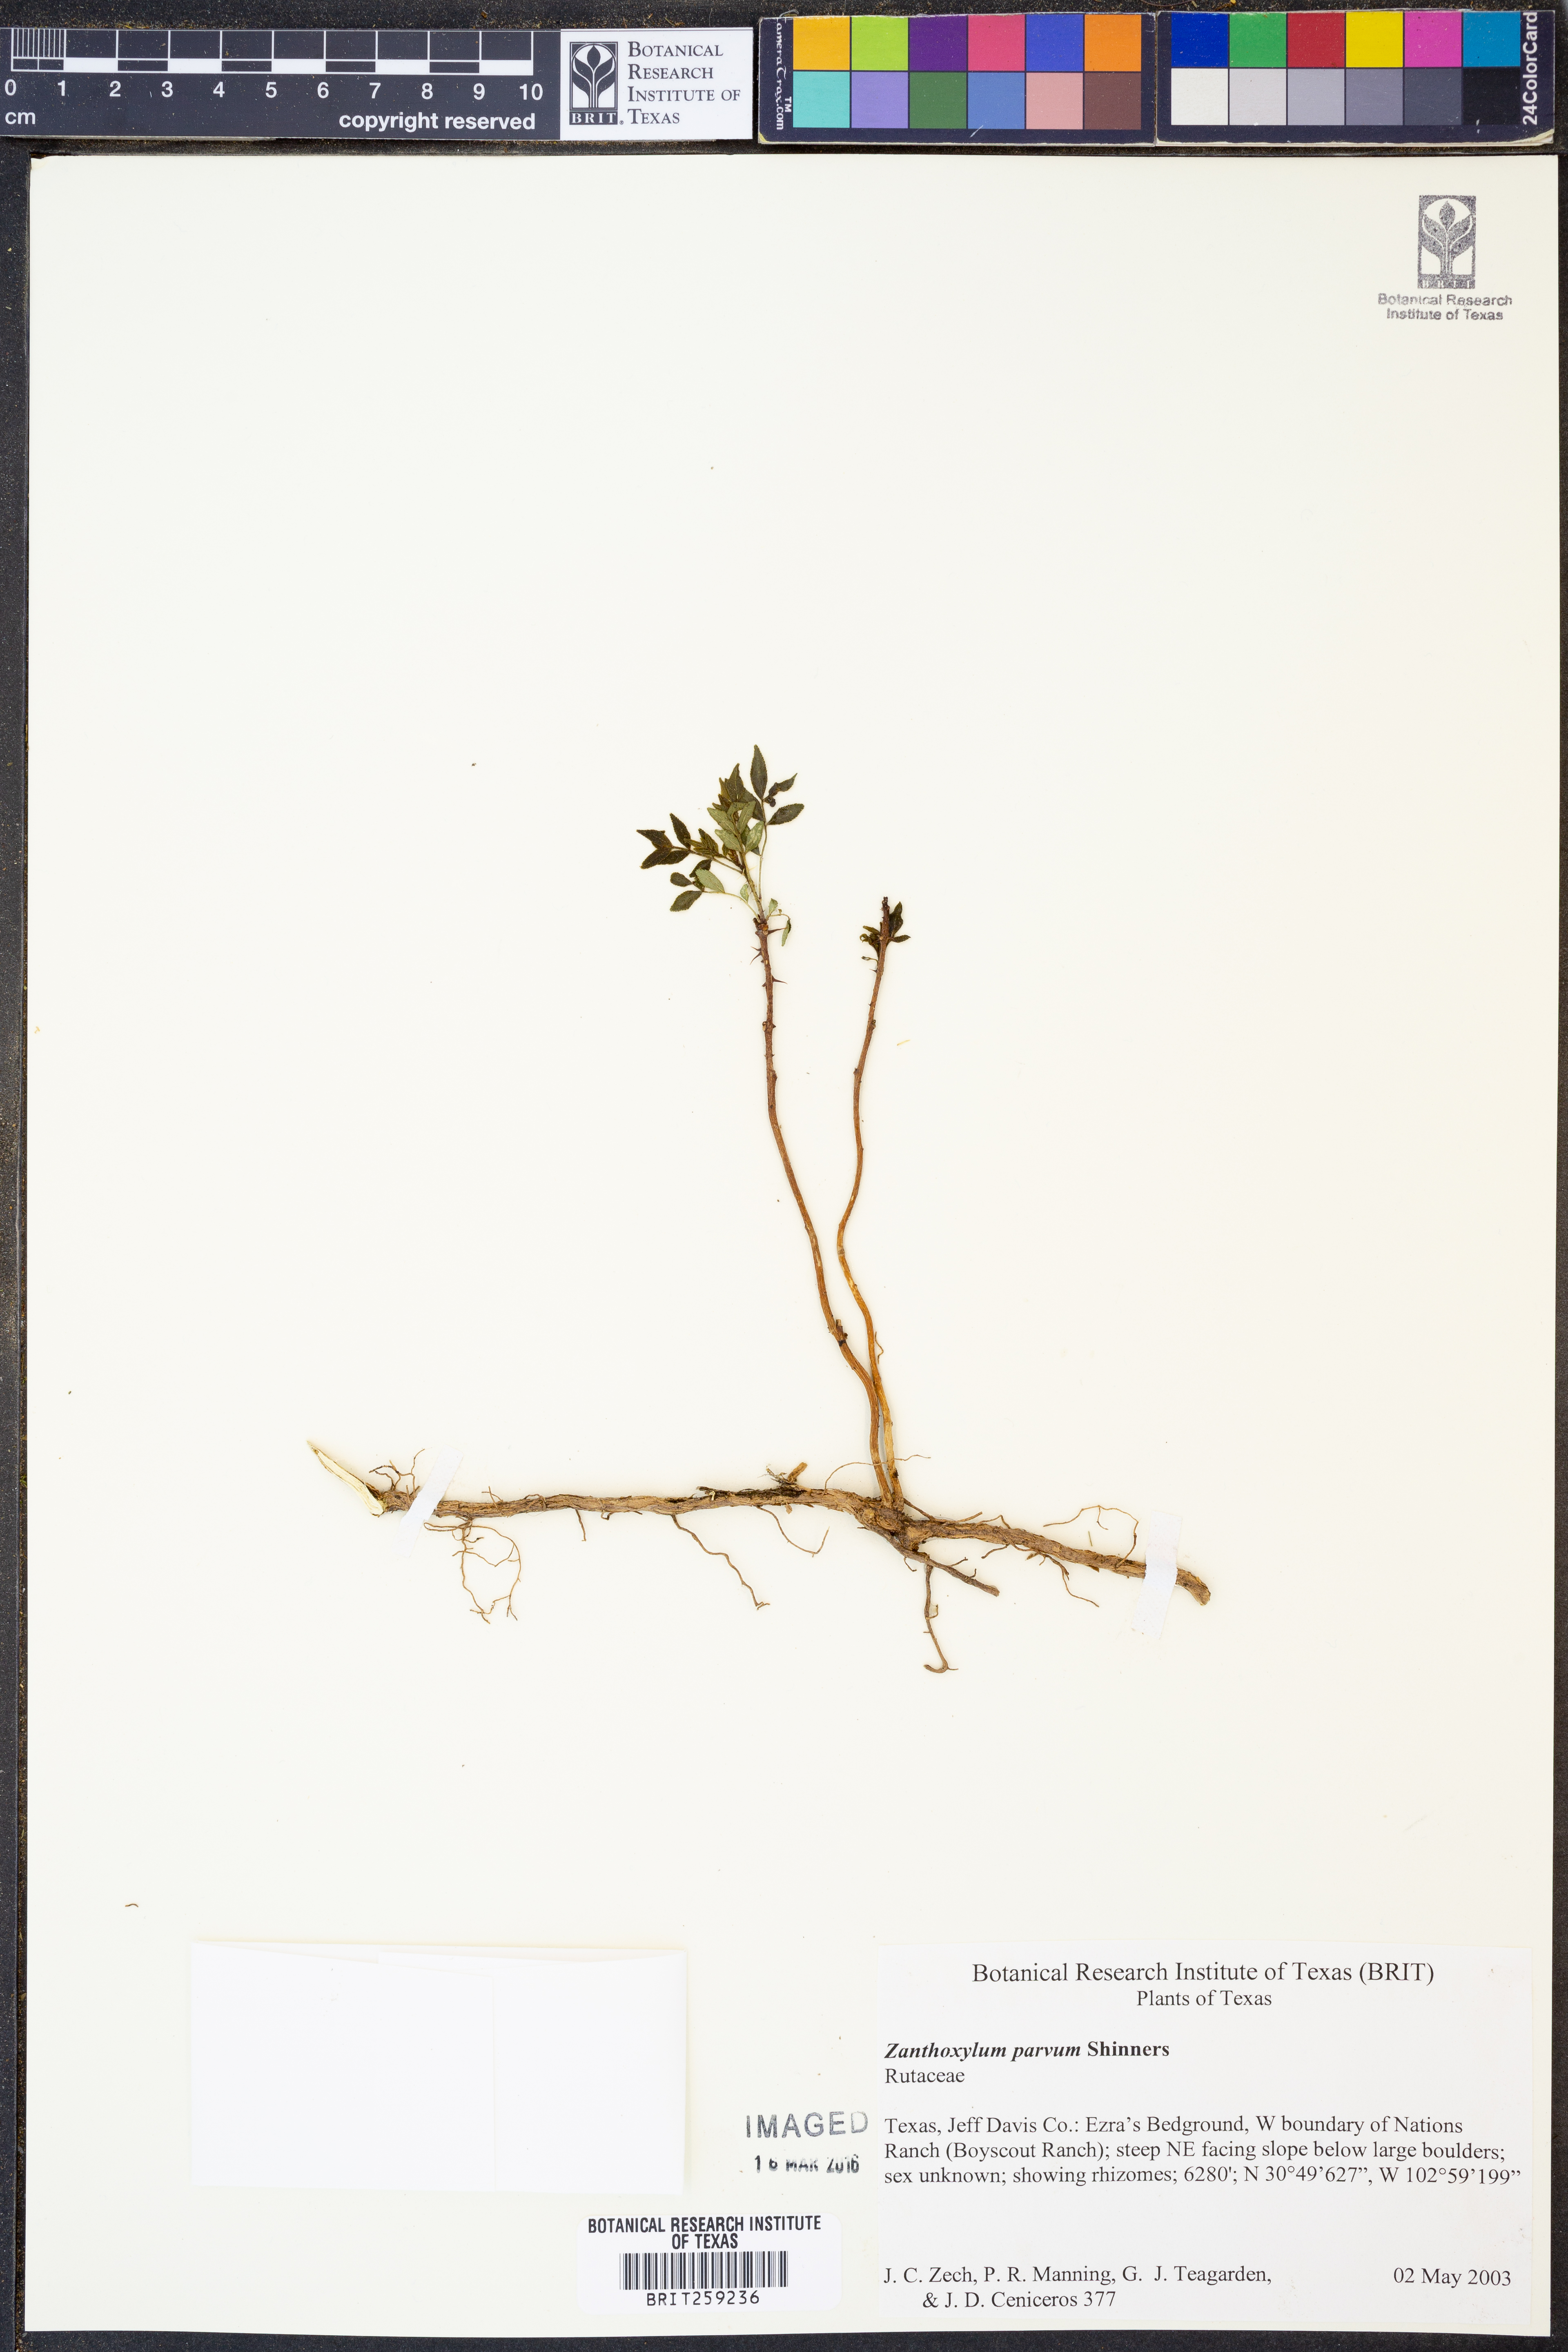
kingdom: Plantae
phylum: Tracheophyta
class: Magnoliopsida
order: Sapindales
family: Rutaceae
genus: Zanthoxylum
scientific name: Zanthoxylum parvum
